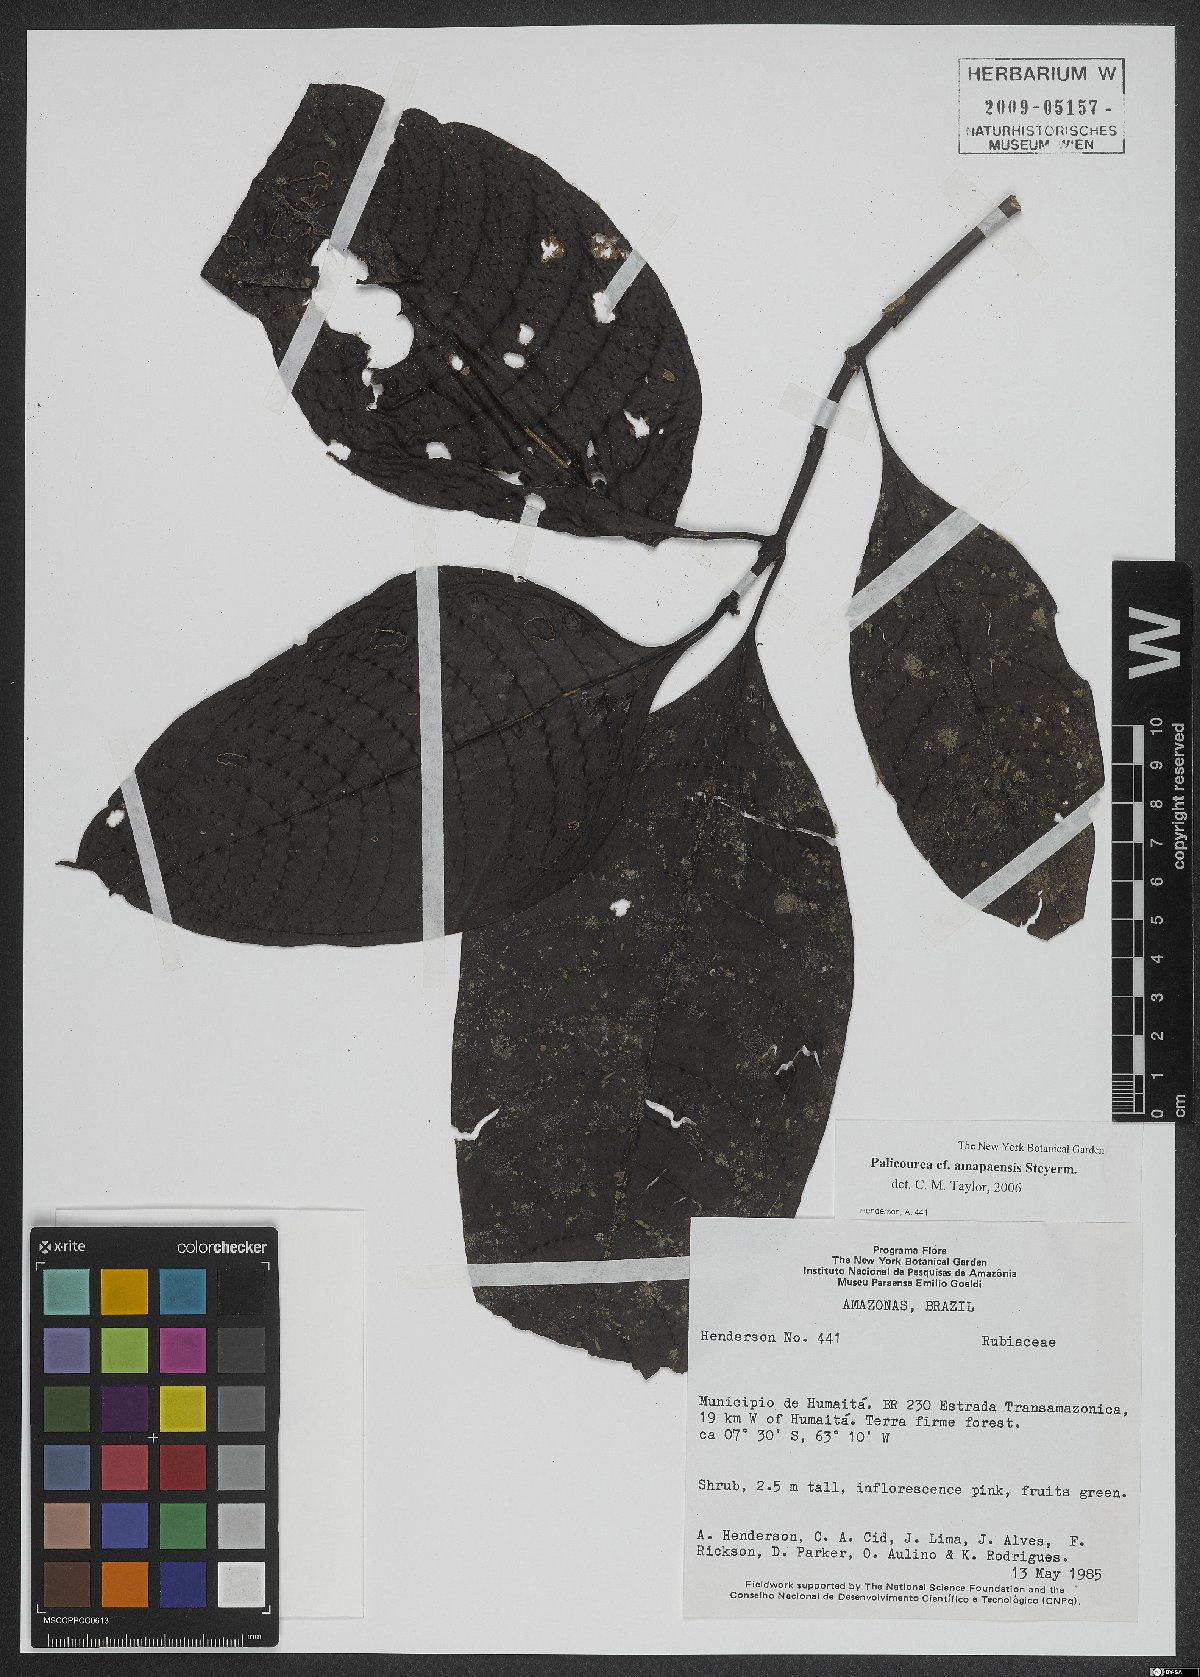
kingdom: Plantae
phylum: Tracheophyta
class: Magnoliopsida
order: Gentianales
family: Rubiaceae
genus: Palicourea
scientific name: Palicourea amapaensis
